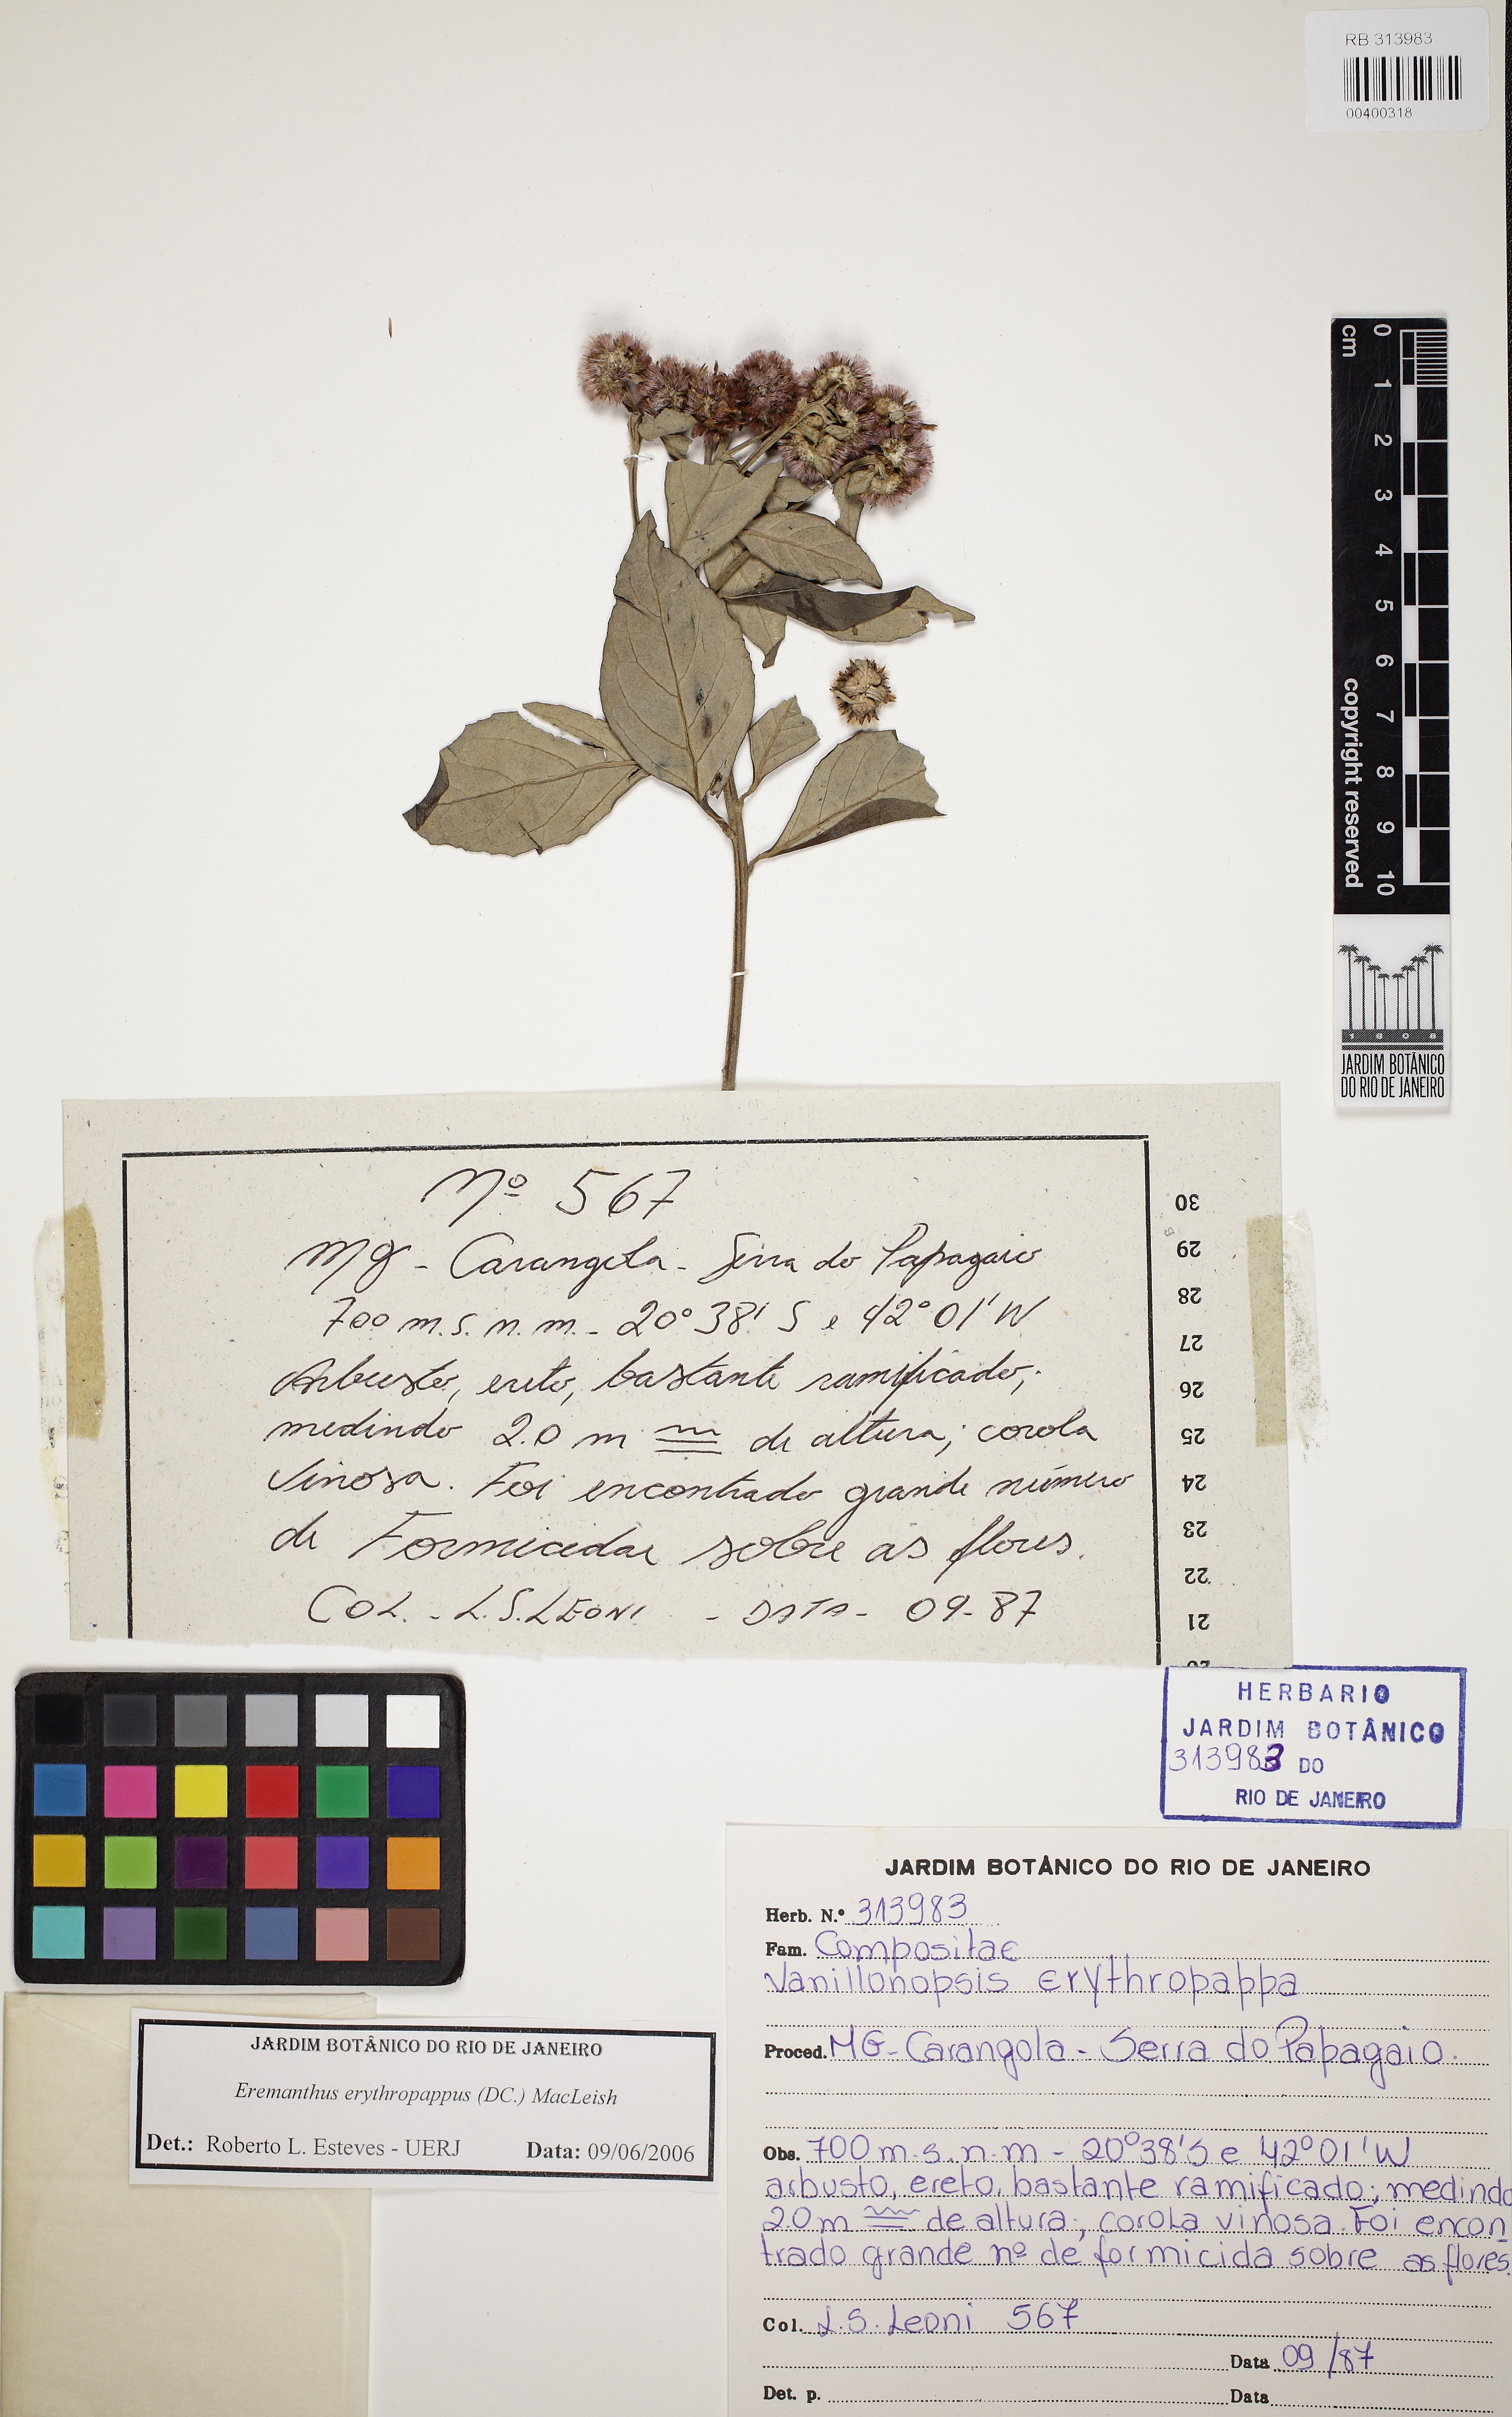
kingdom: Plantae
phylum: Tracheophyta
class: Magnoliopsida
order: Asterales
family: Asteraceae
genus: Eremanthus
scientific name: Eremanthus erythropappus
